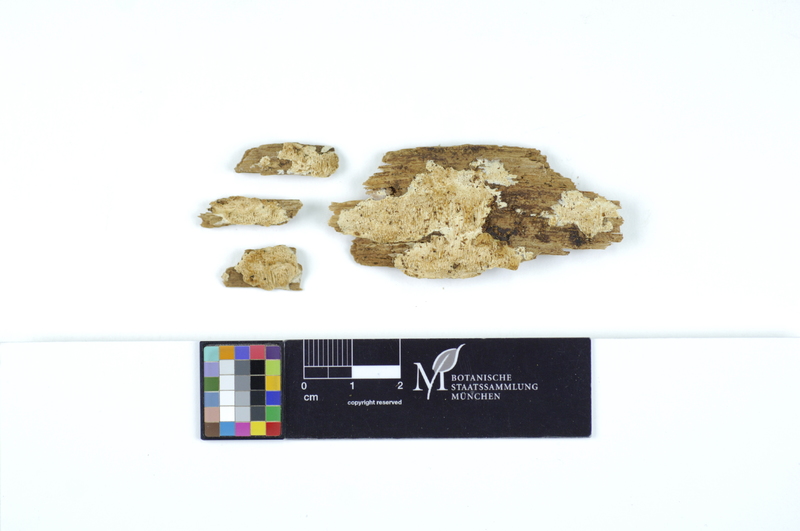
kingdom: Fungi
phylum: Basidiomycota
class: Agaricomycetes
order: Polyporales
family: Steccherinaceae
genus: Flaviporus
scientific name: Flaviporus citrinellus
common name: Lemon-colored antrodiella
